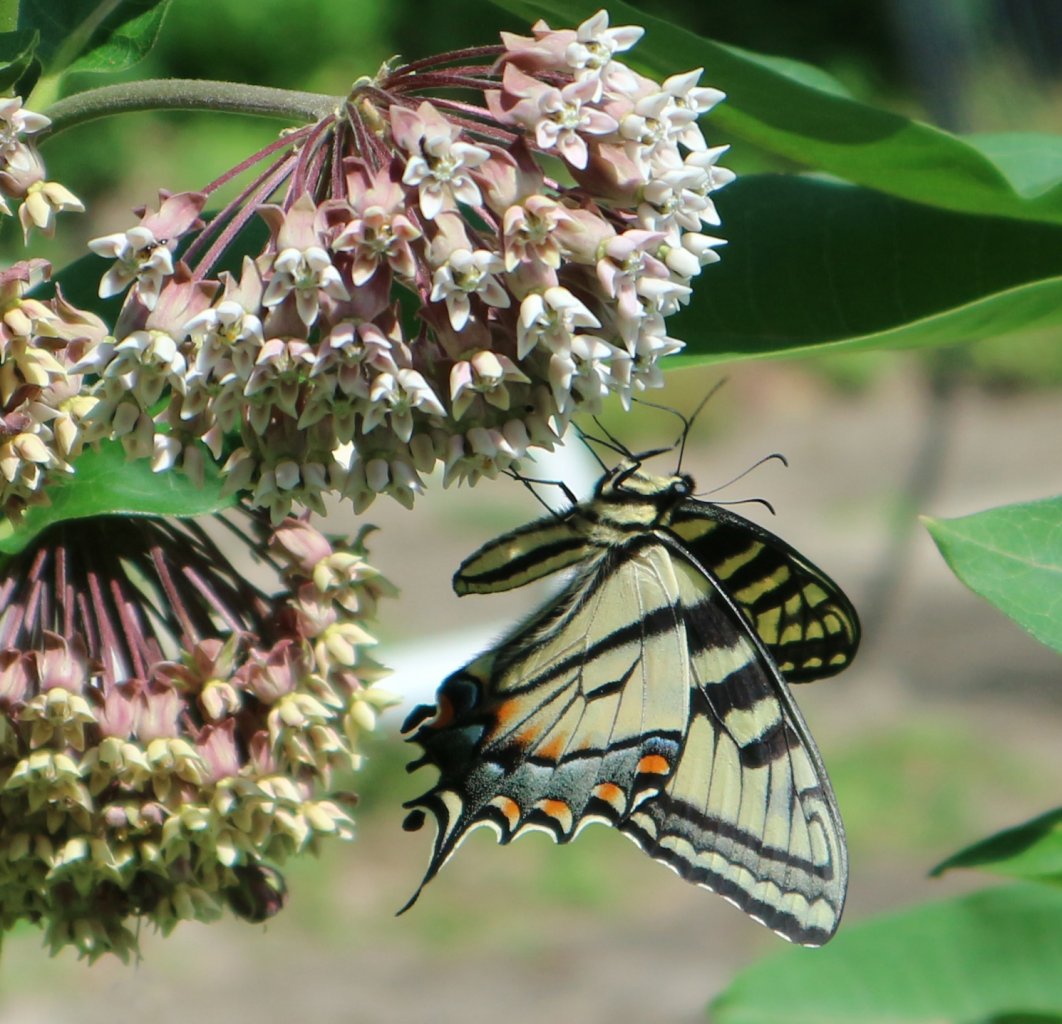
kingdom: Animalia
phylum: Arthropoda
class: Insecta
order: Lepidoptera
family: Papilionidae
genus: Papilio
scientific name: Papilio
